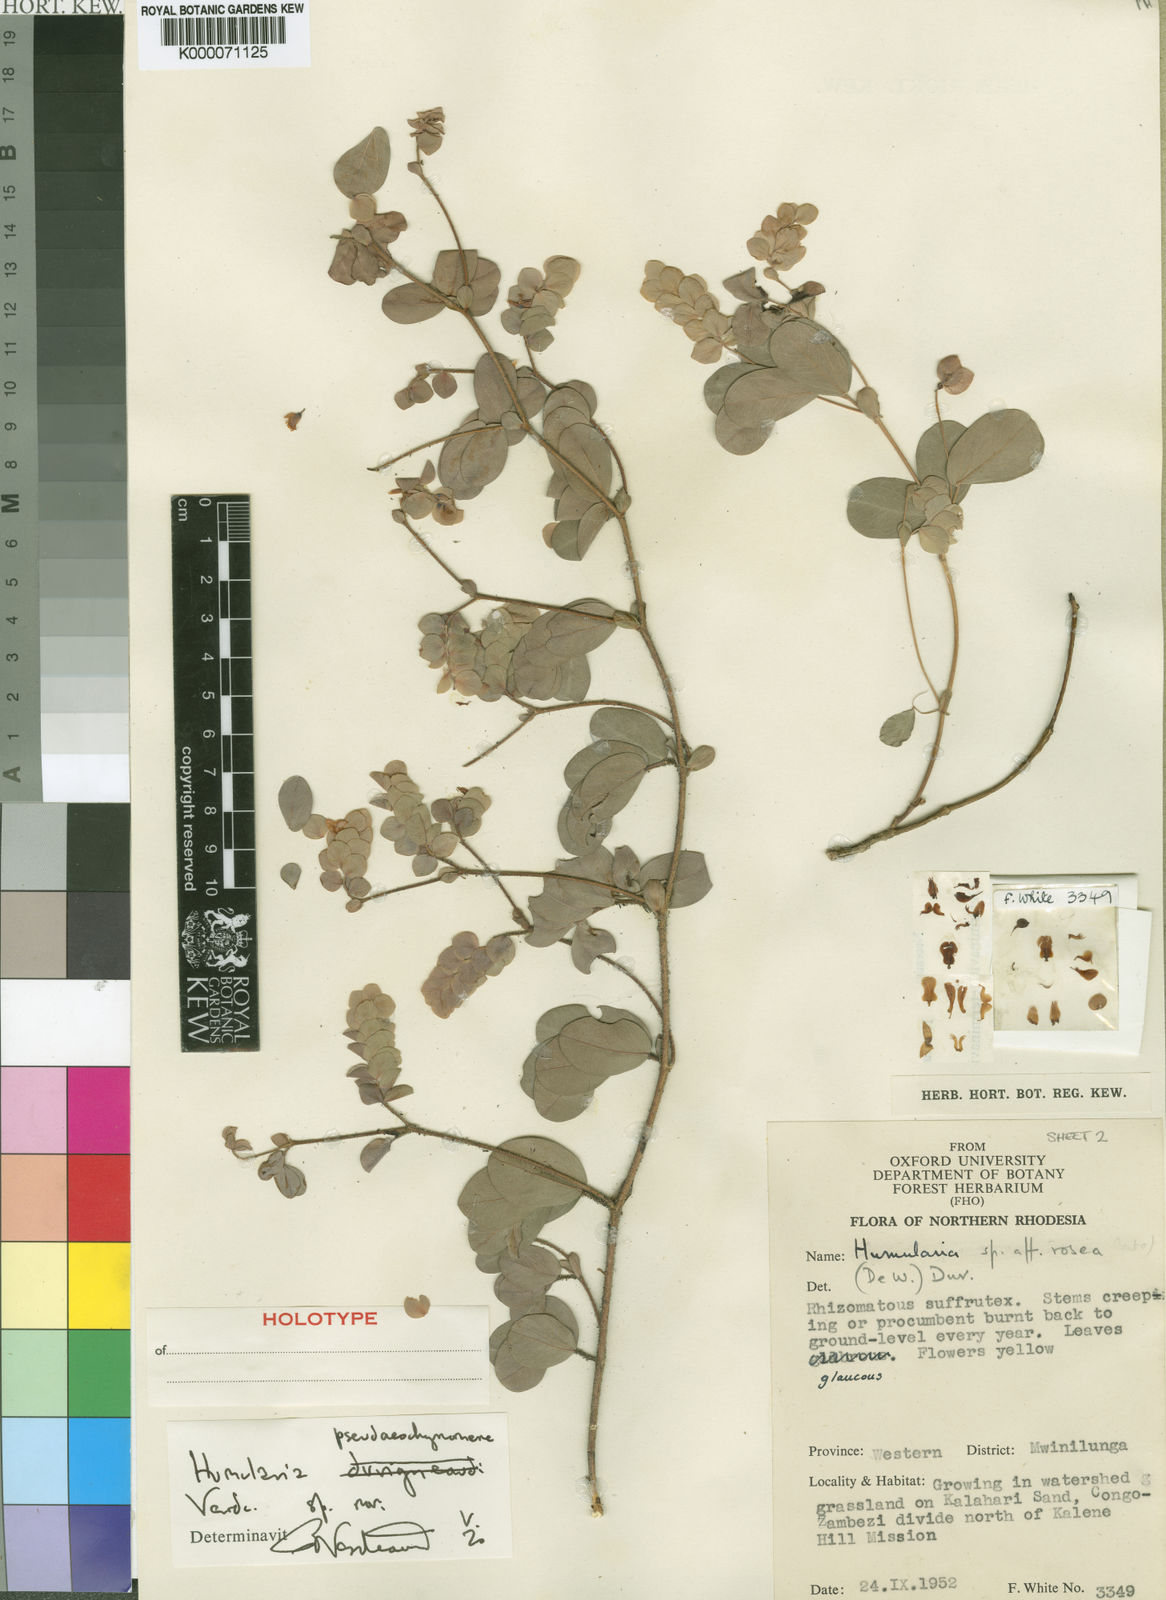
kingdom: Plantae
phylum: Tracheophyta
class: Magnoliopsida
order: Fabales
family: Fabaceae
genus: Humularia
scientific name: Humularia pseudaeschynomene
